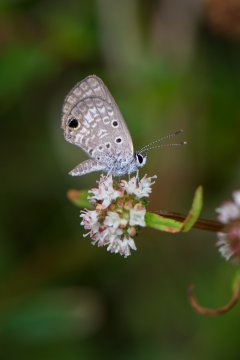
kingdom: Animalia
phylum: Arthropoda
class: Insecta
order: Lepidoptera
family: Lycaenidae
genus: Hemiargus
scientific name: Hemiargus ceraunus
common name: Ceraunus Blue
